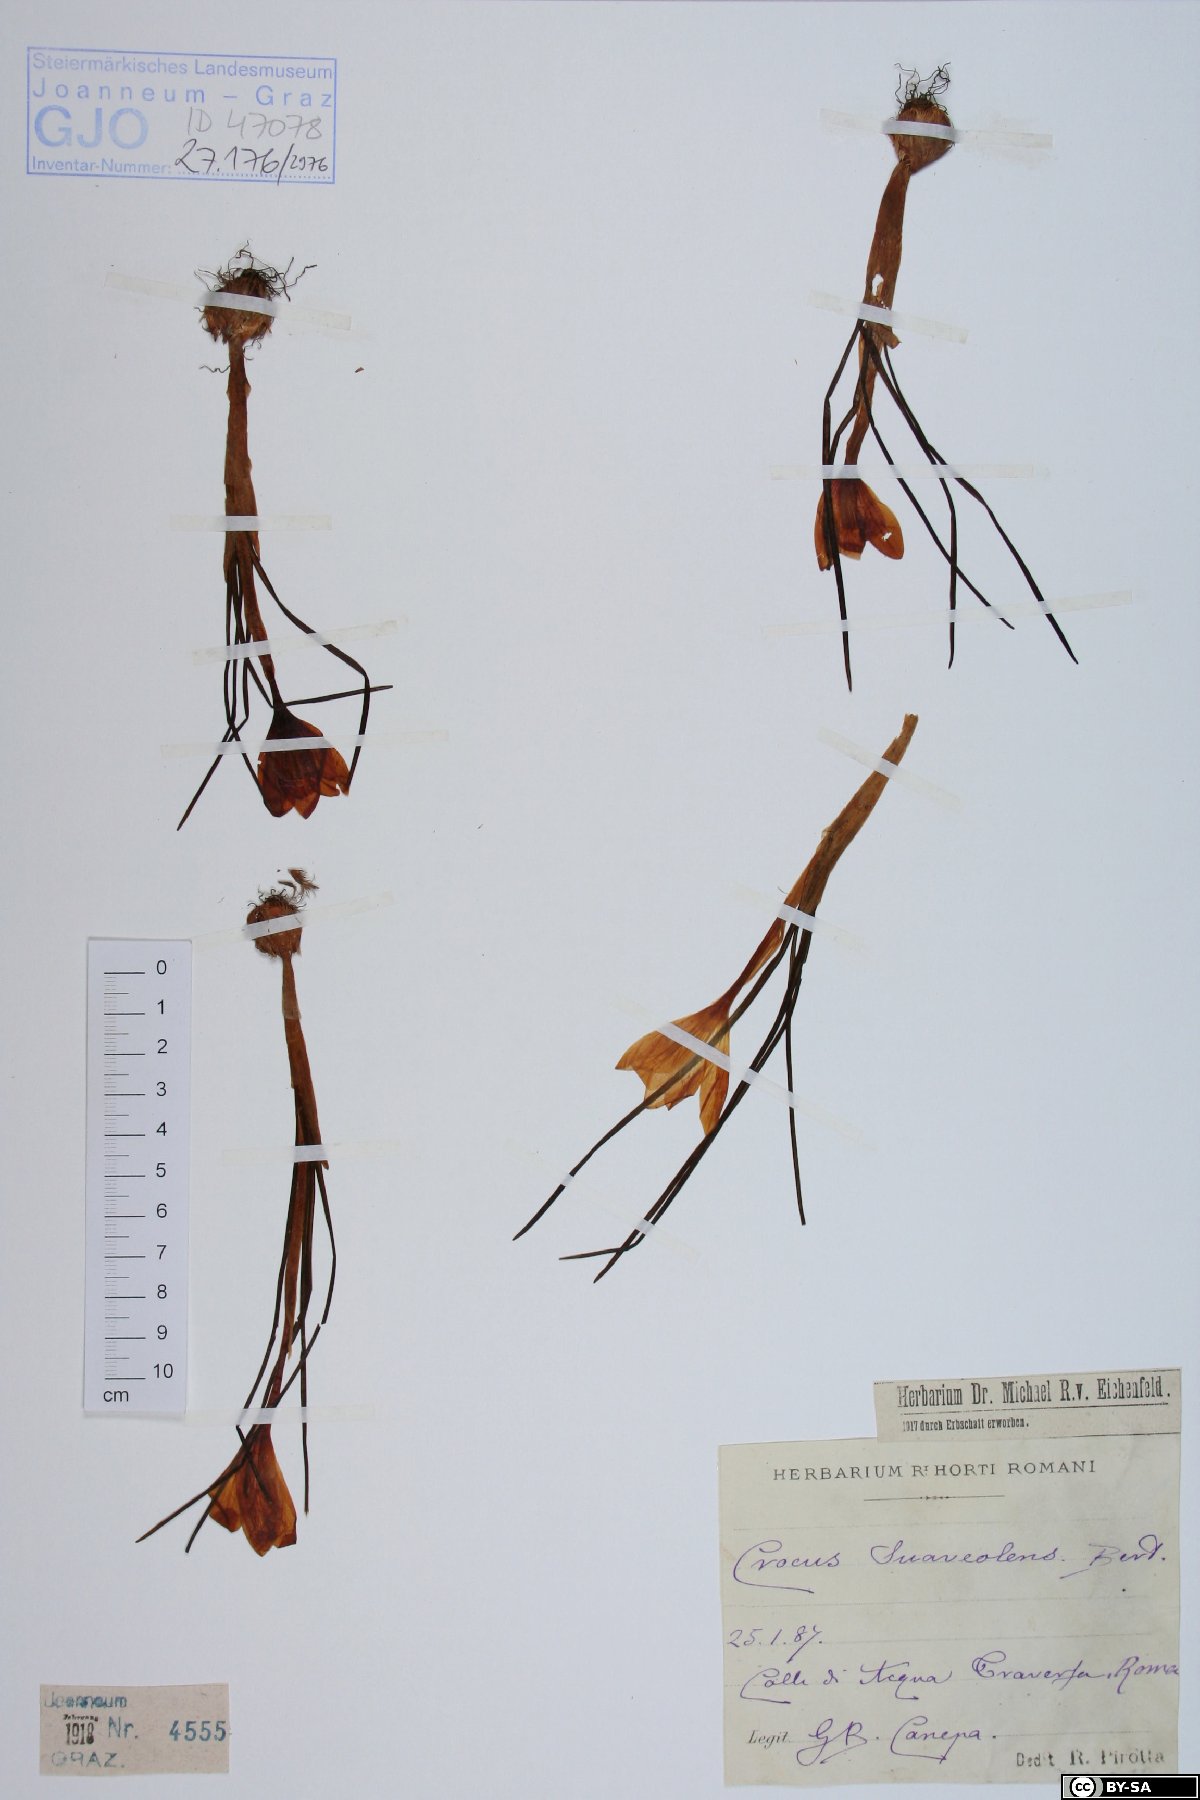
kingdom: Plantae
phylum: Tracheophyta
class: Liliopsida
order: Asparagales
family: Iridaceae
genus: Crocus
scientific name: Crocus suaveolens
